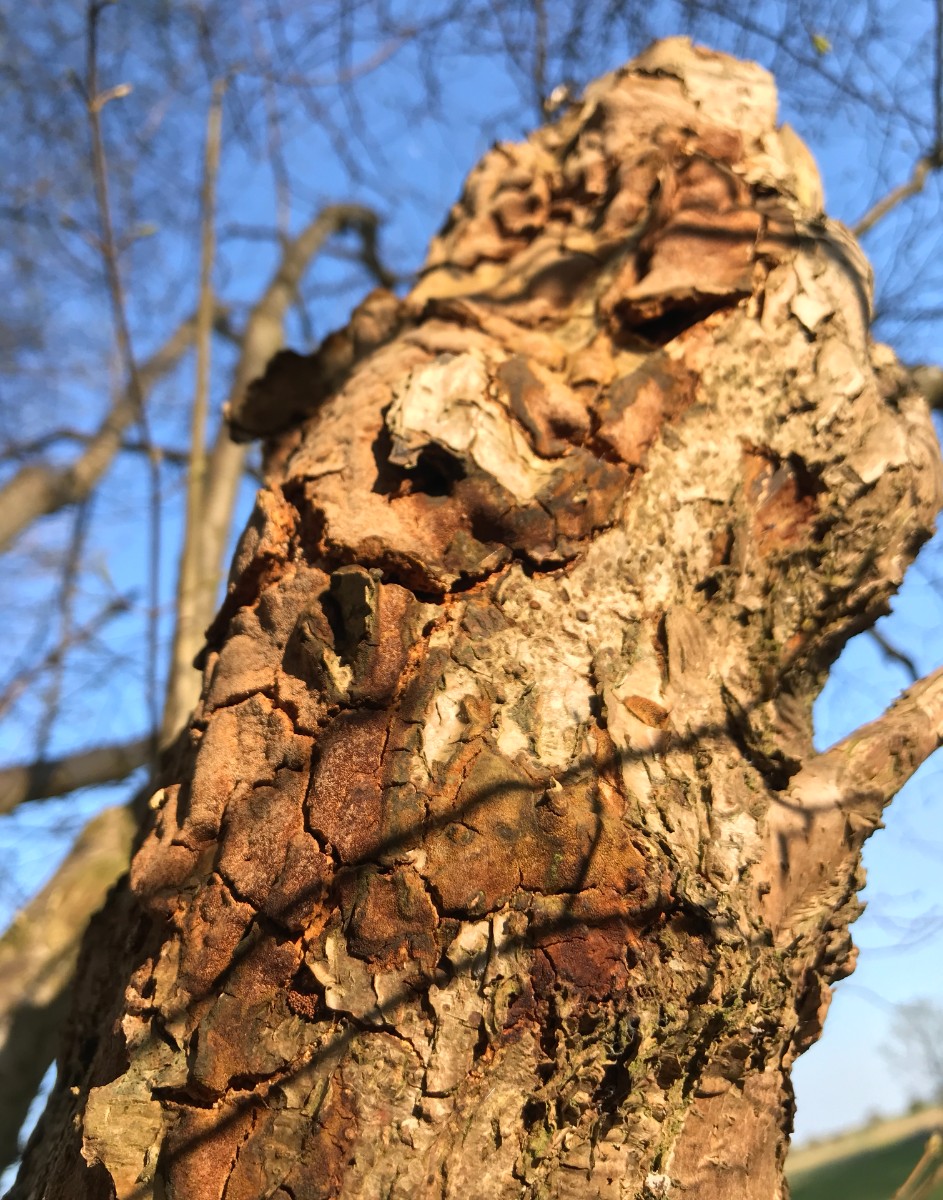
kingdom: Fungi
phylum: Basidiomycota
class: Agaricomycetes
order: Hymenochaetales
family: Hymenochaetaceae
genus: Fuscoporia
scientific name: Fuscoporia ferrea
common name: skorpe-ildporesvamp
